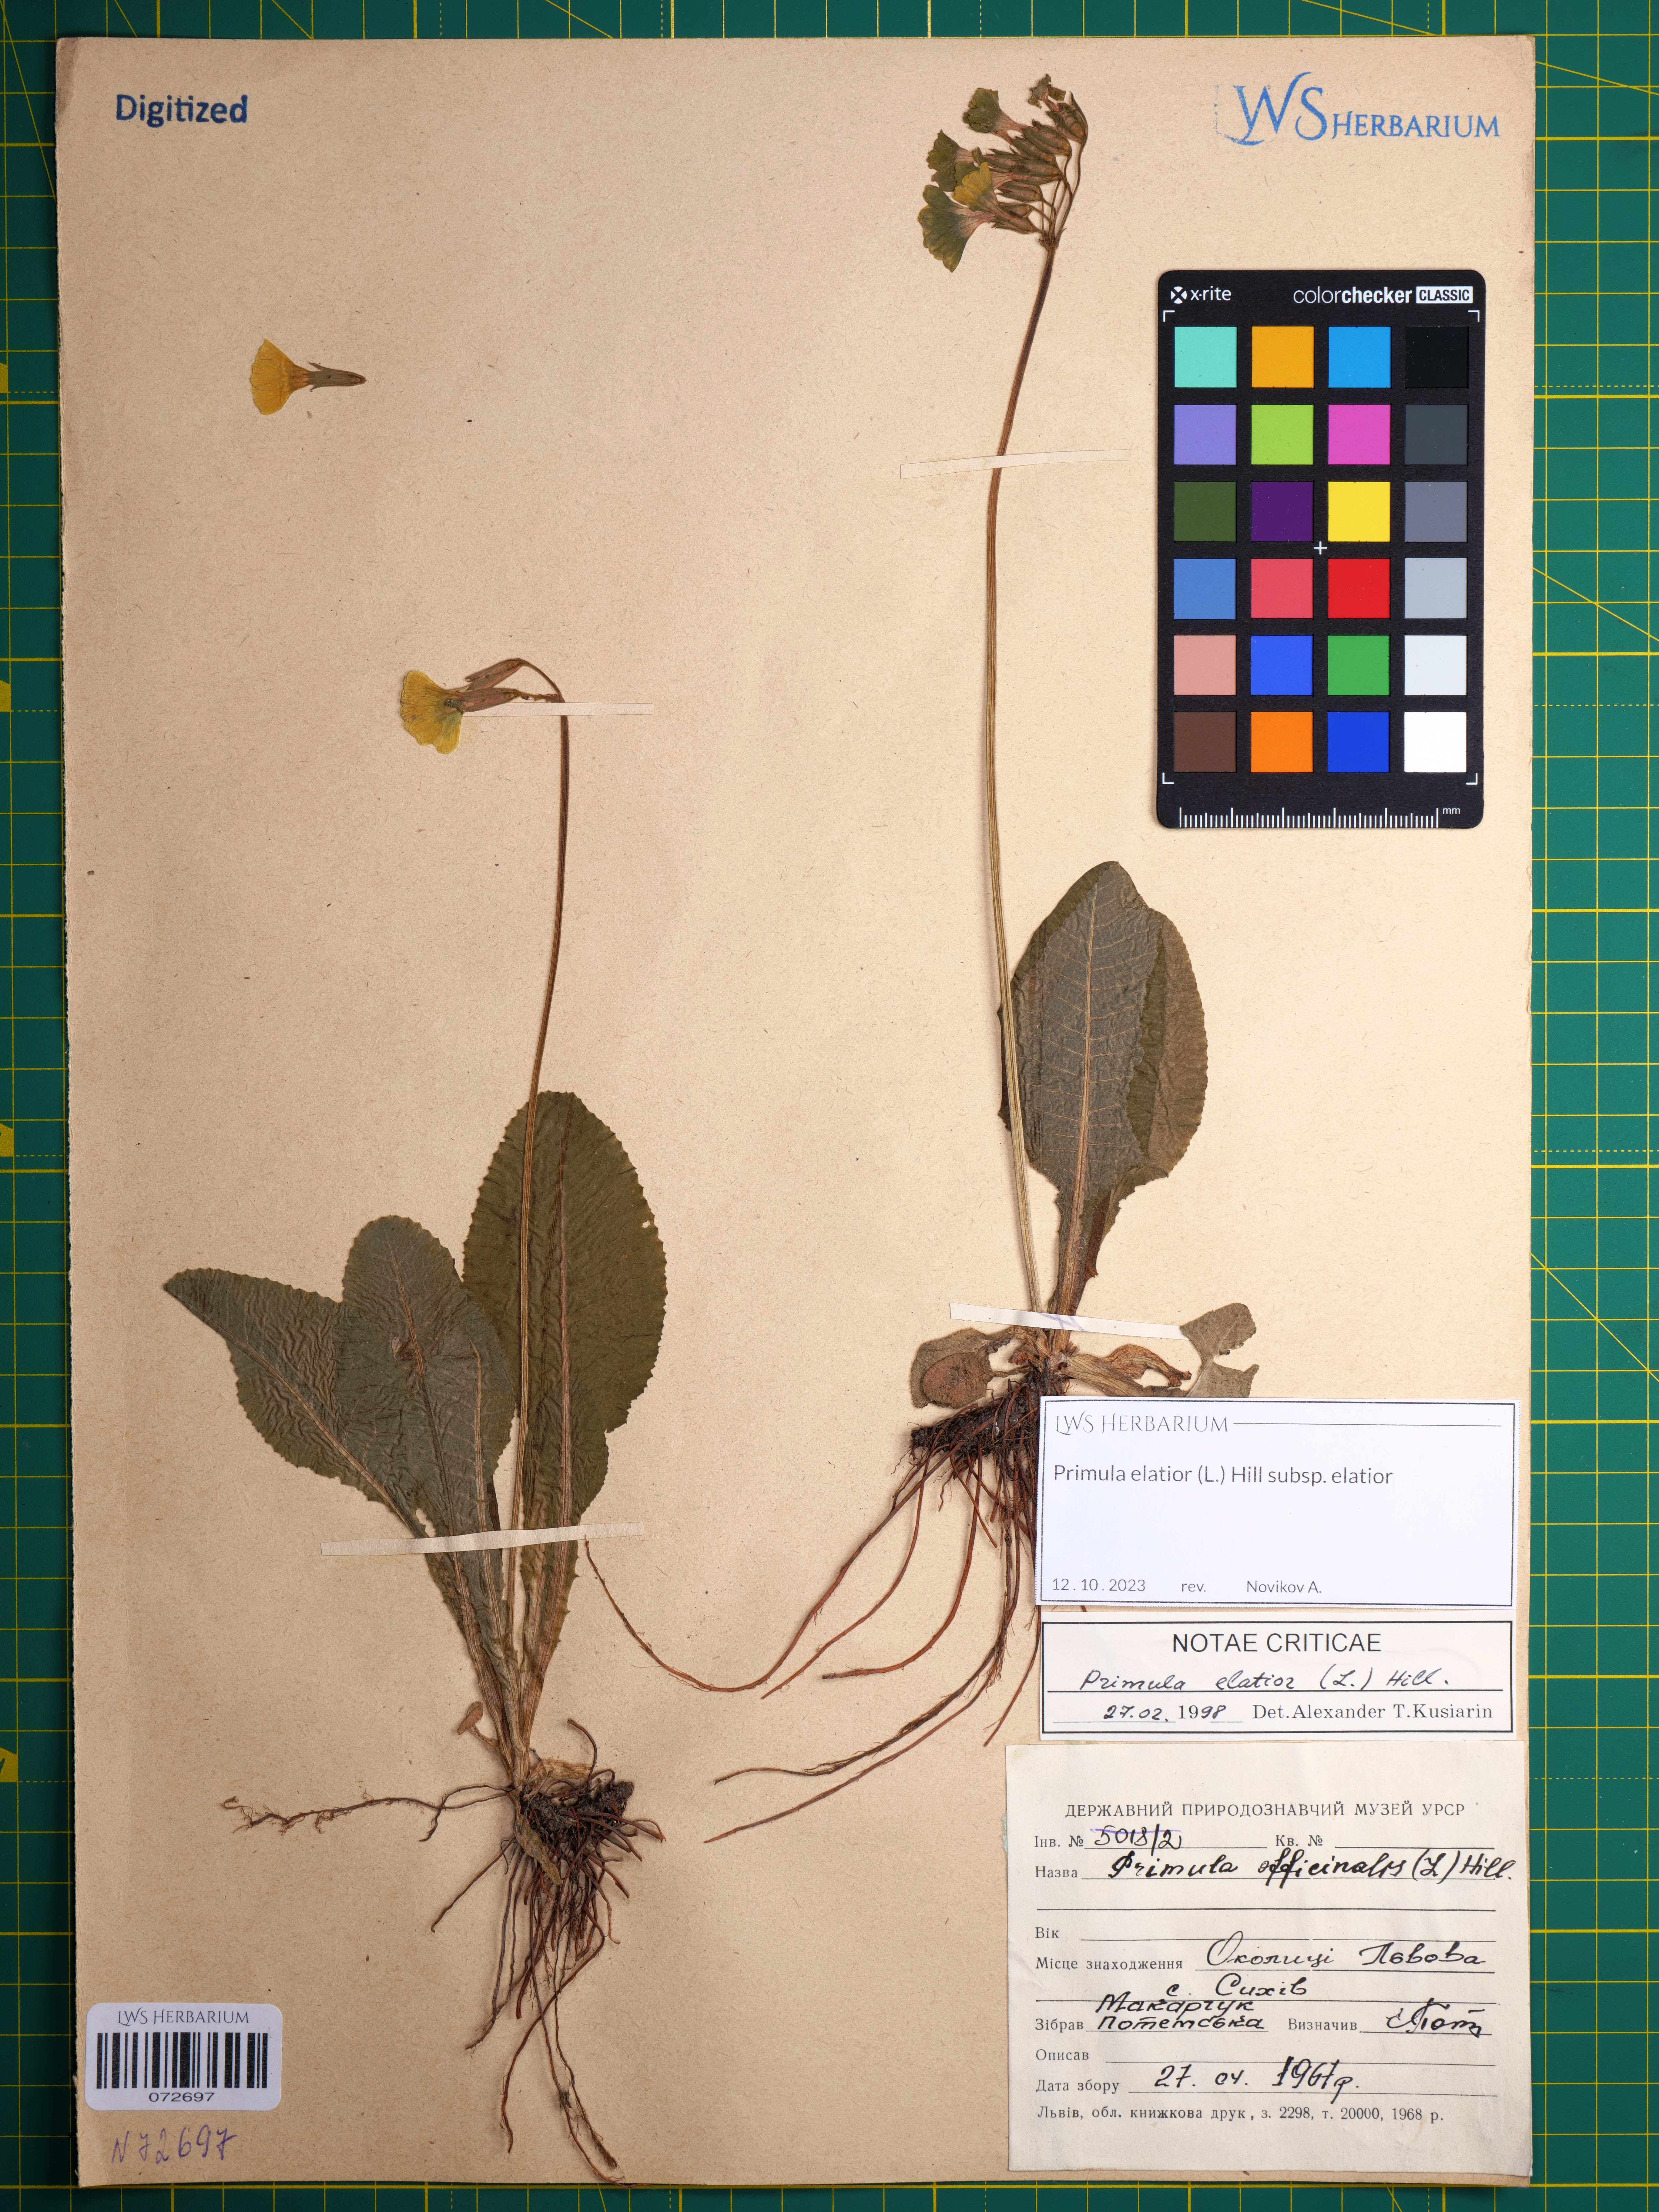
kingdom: Plantae
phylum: Tracheophyta
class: Magnoliopsida
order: Ericales
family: Primulaceae
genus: Primula
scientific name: Primula elatior
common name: Oxlip
